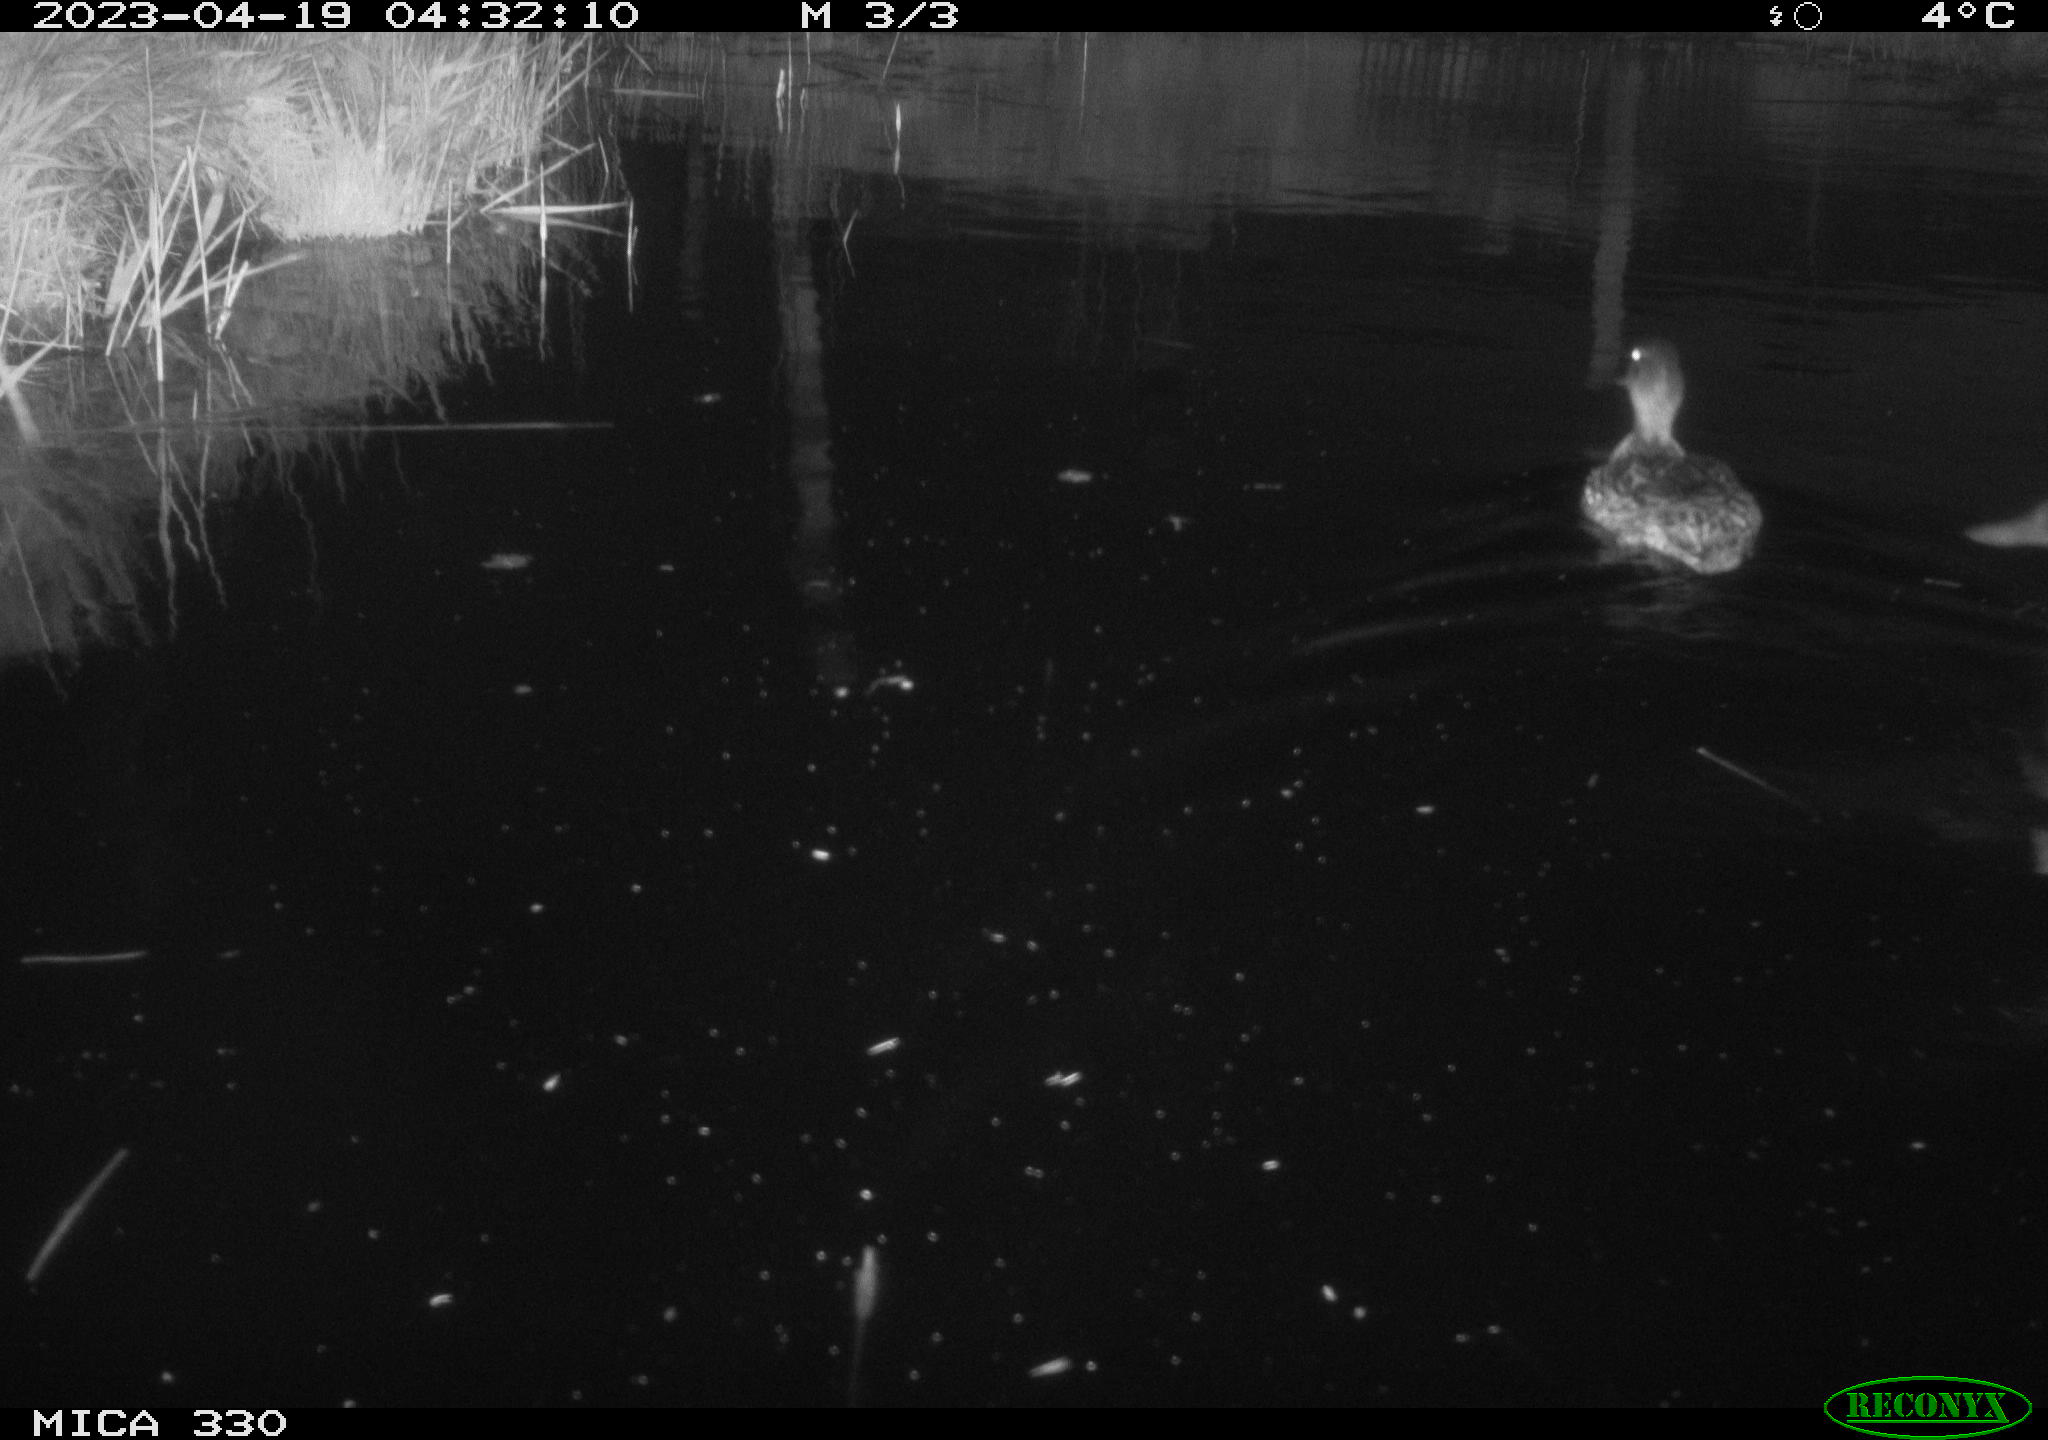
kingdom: Animalia
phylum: Chordata
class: Aves
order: Anseriformes
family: Anatidae
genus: Anas
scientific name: Anas
